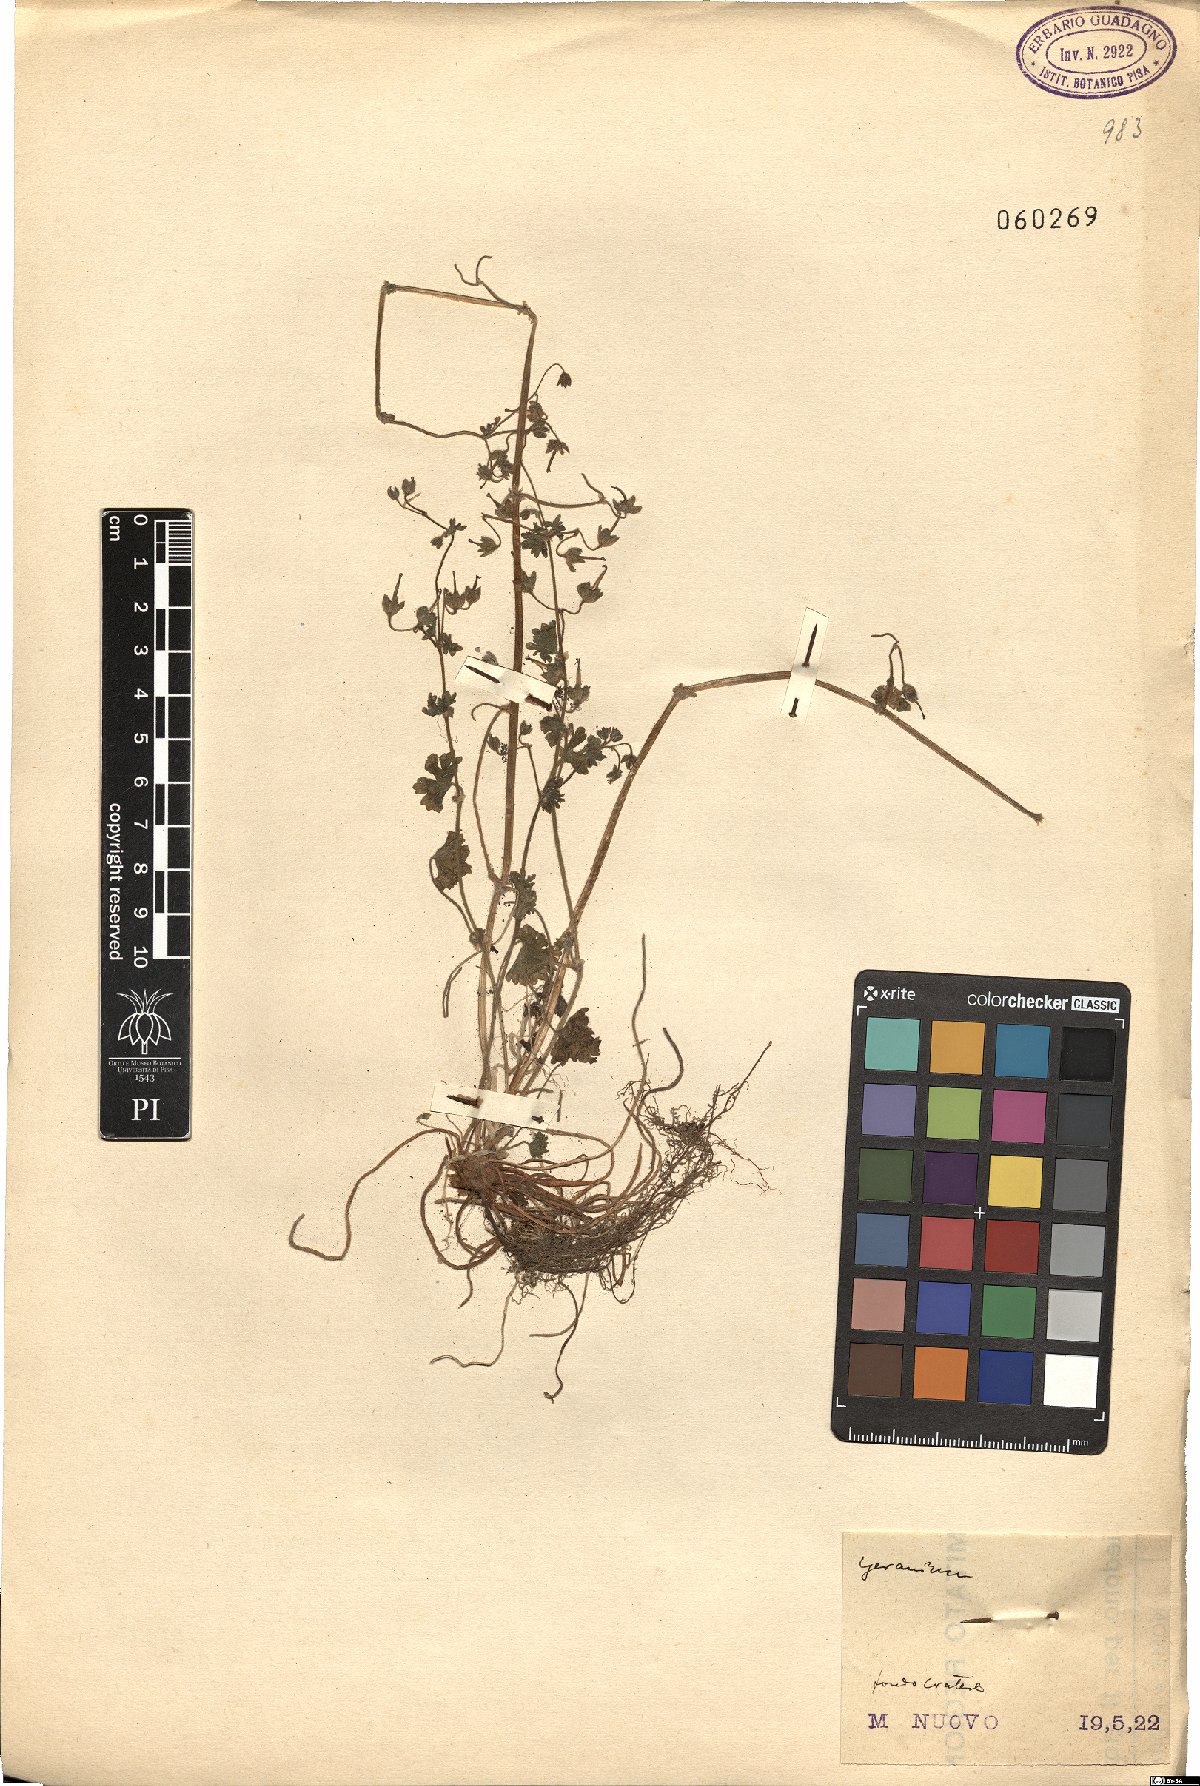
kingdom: Plantae
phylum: Tracheophyta
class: Magnoliopsida
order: Geraniales
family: Geraniaceae
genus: Geranium
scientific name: Geranium
